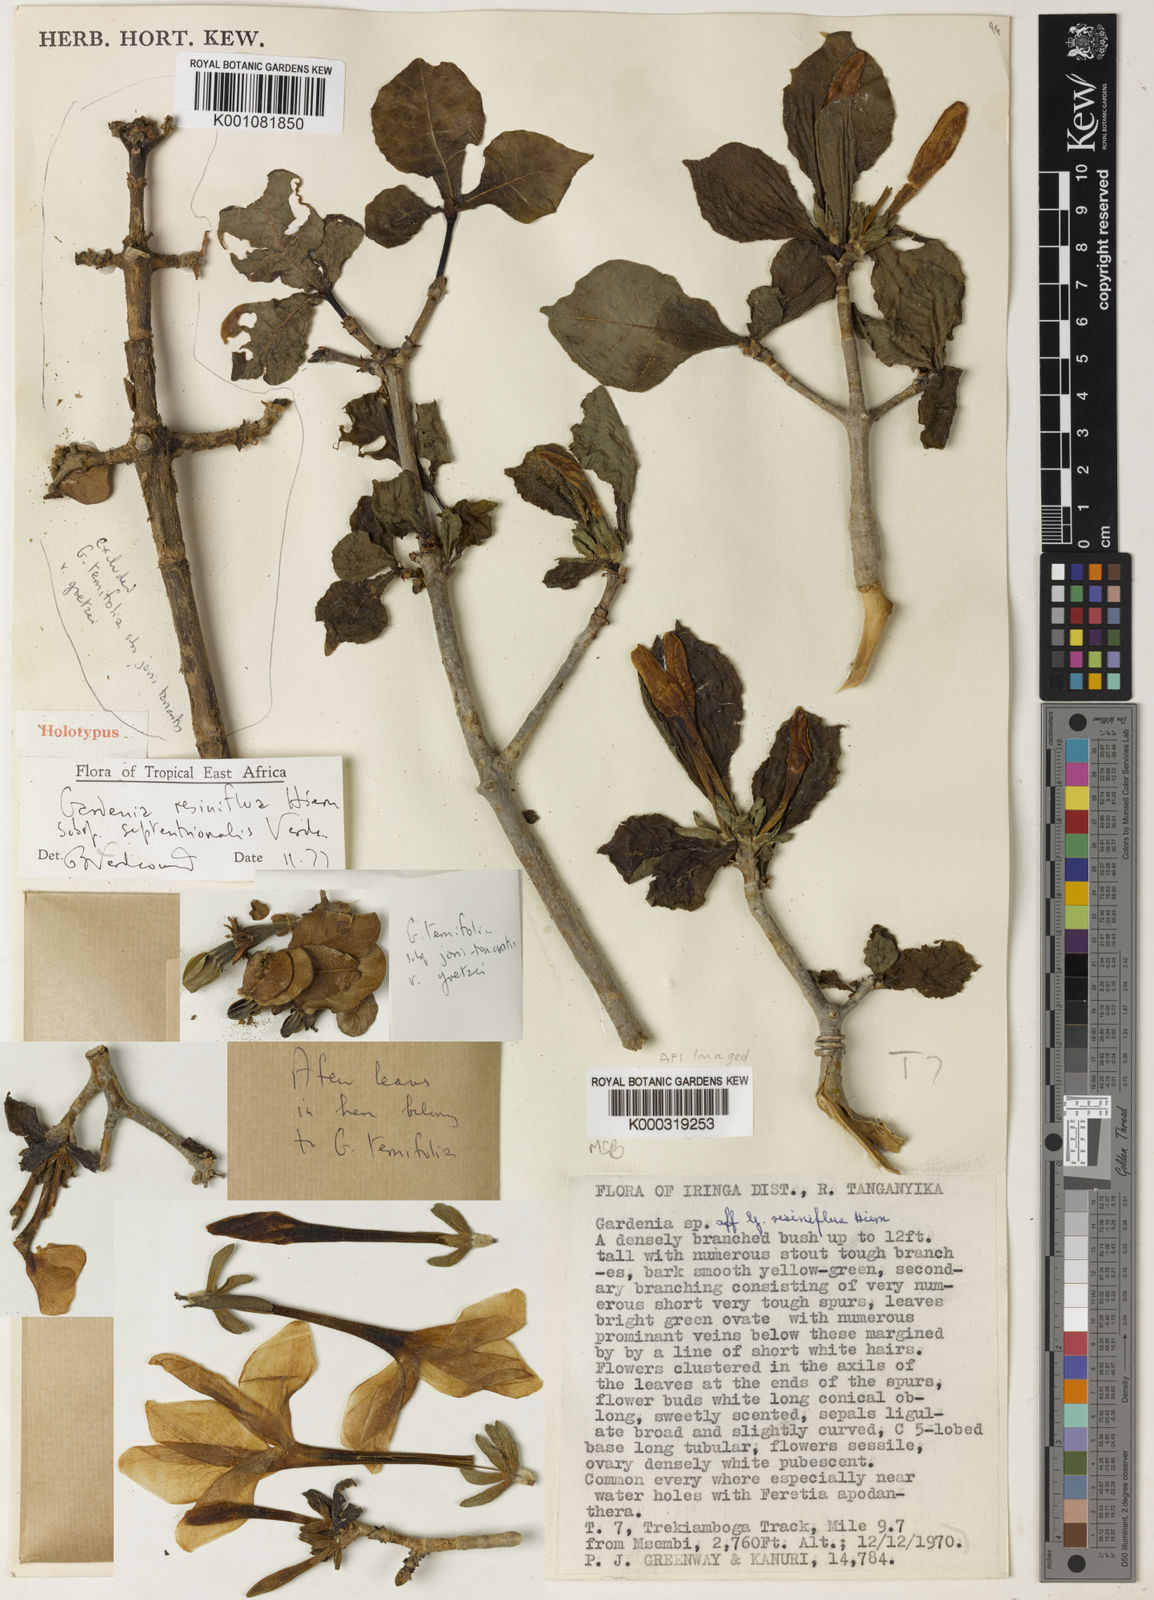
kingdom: Plantae
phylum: Tracheophyta
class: Magnoliopsida
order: Gentianales
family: Rubiaceae
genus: Gardenia
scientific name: Gardenia resiniflua
